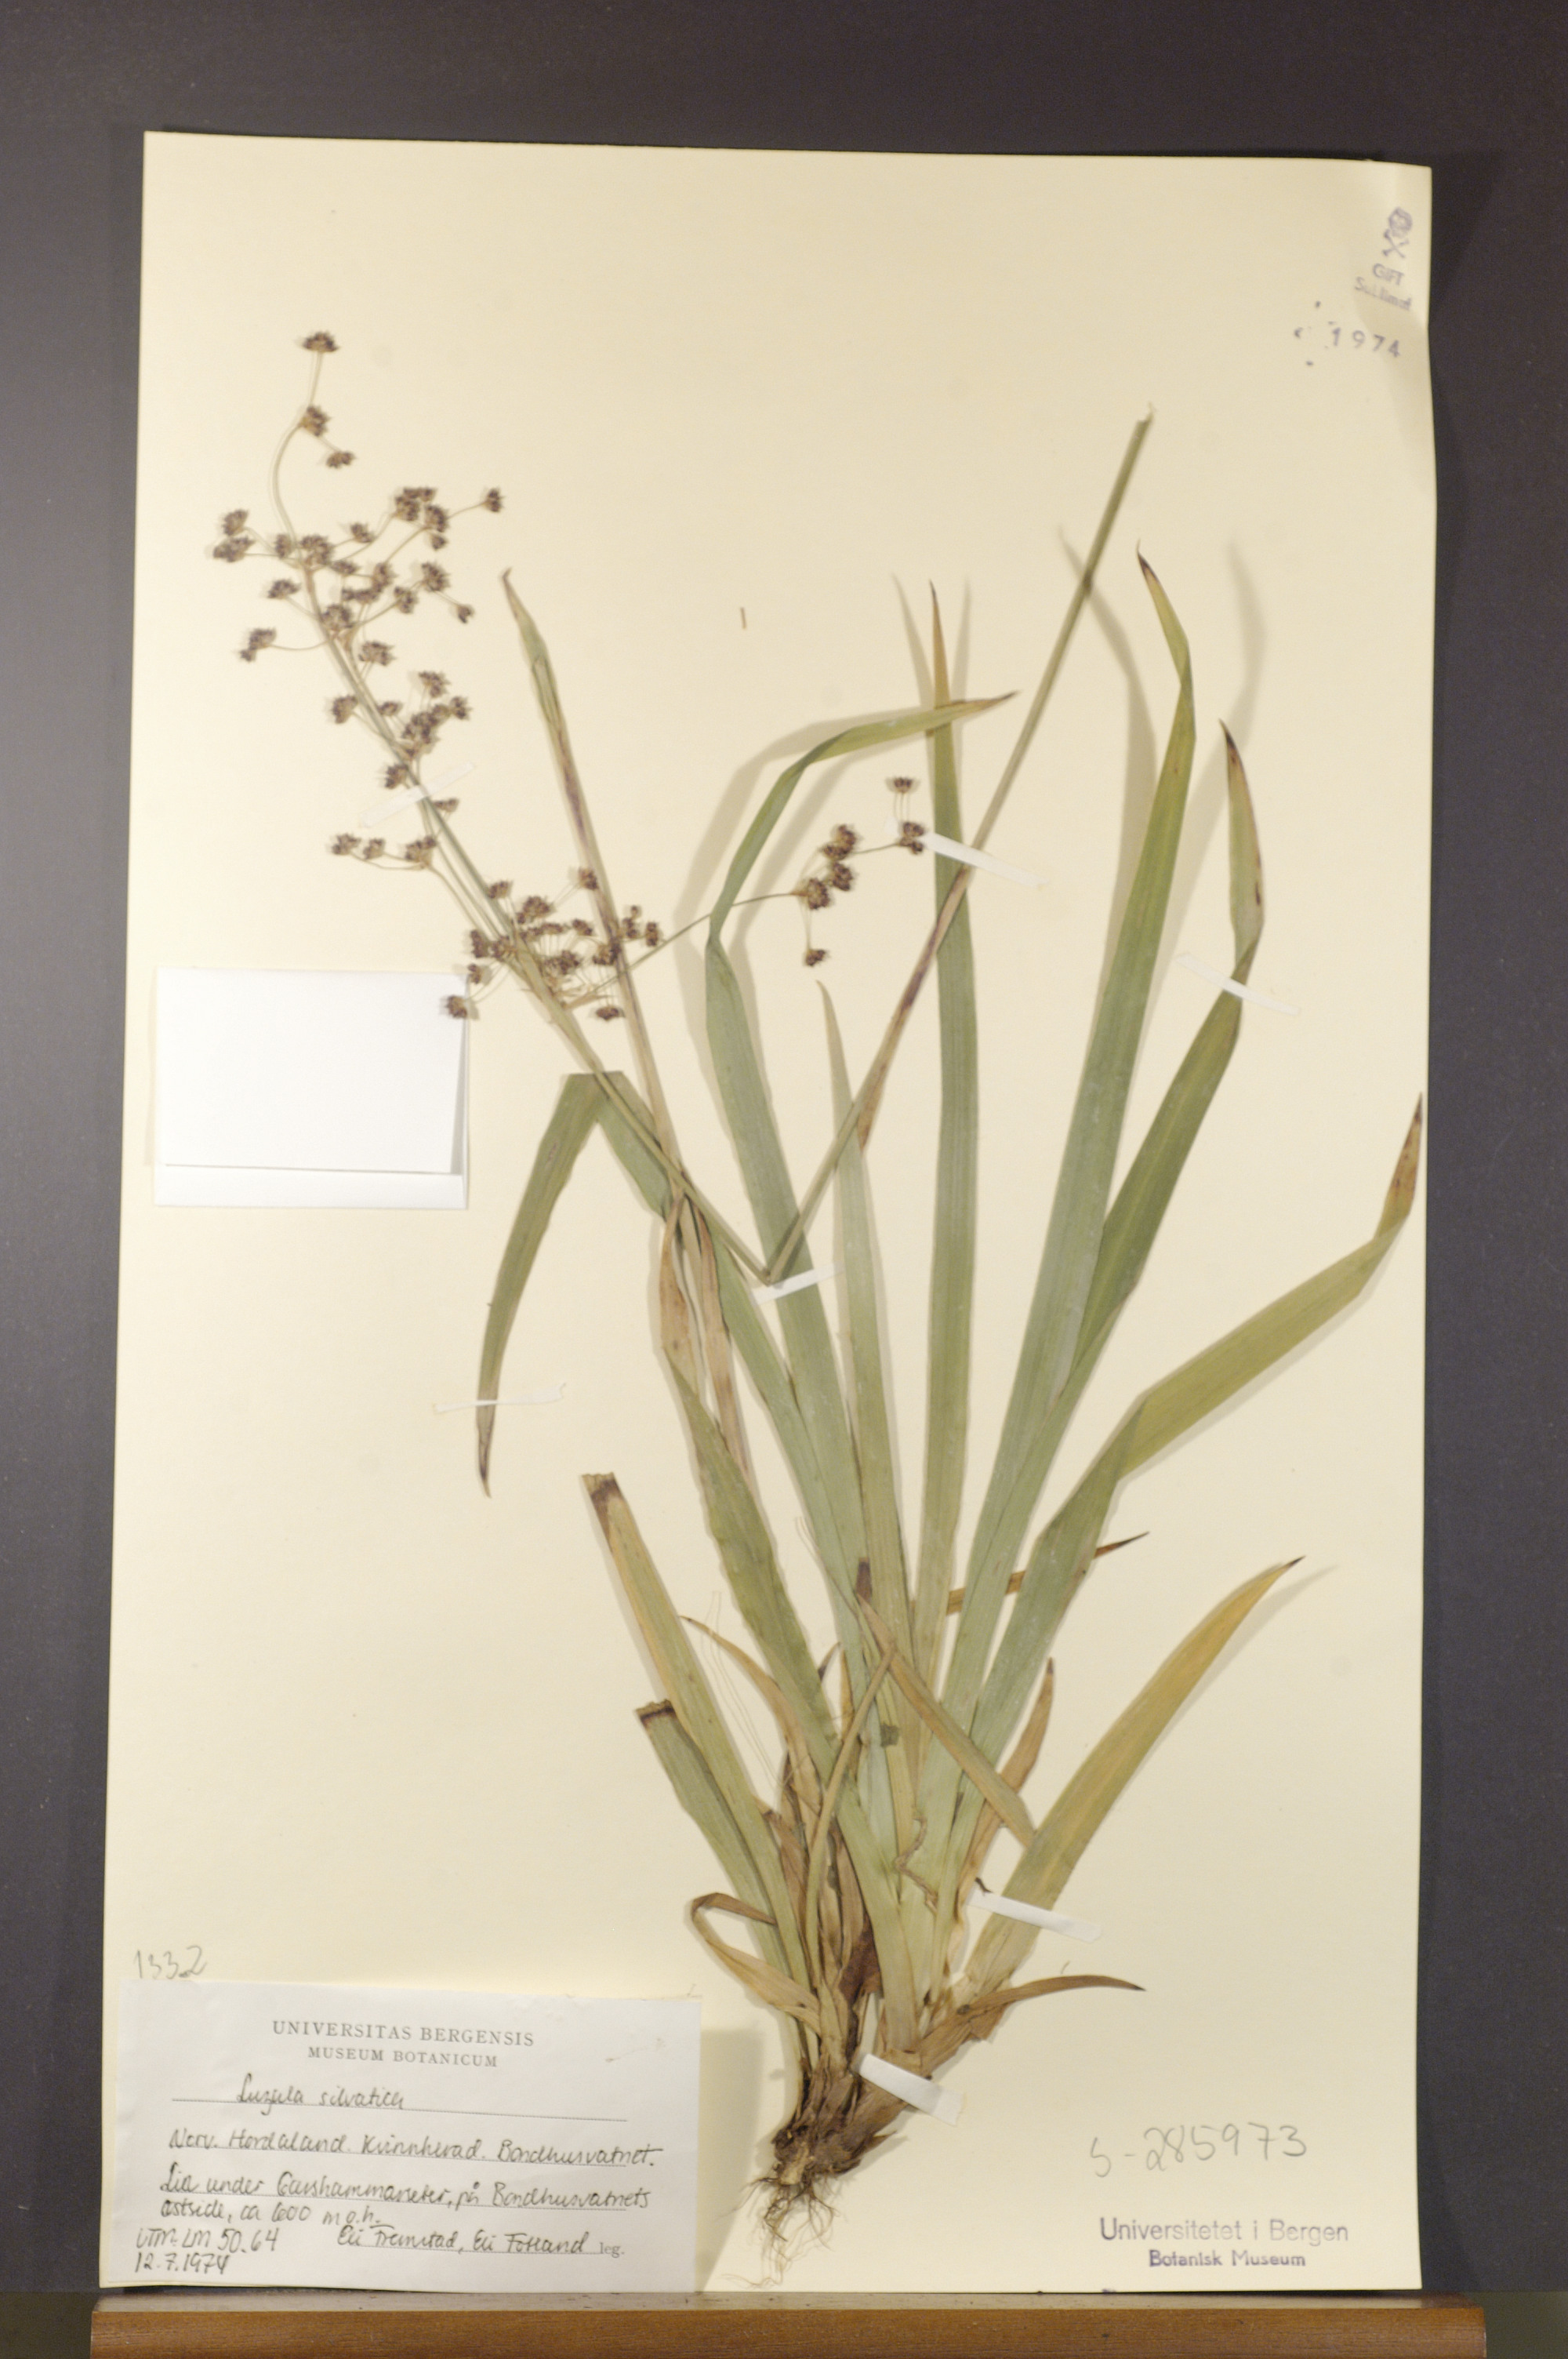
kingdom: Plantae
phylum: Tracheophyta
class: Liliopsida
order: Poales
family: Juncaceae
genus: Luzula
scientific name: Luzula sylvatica
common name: Great wood-rush
